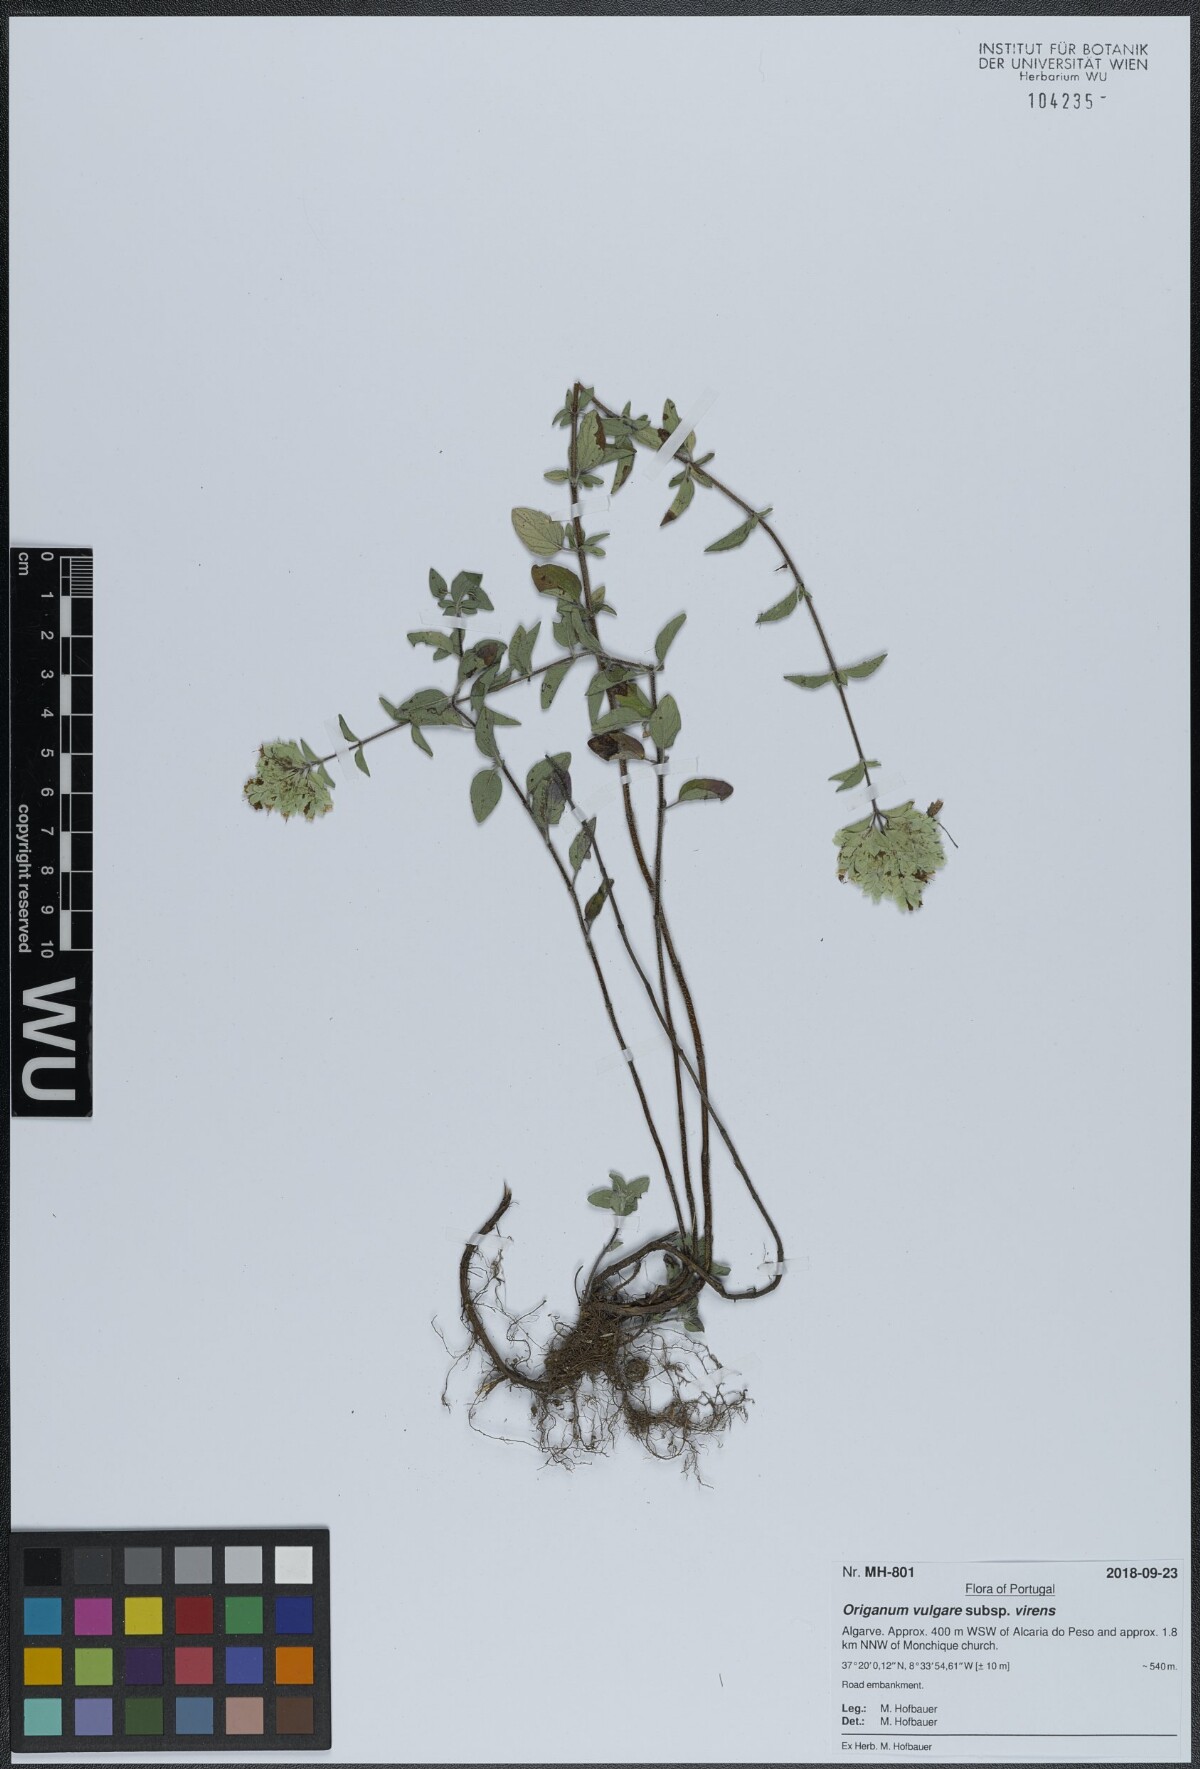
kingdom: Plantae
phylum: Tracheophyta
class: Magnoliopsida
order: Lamiales
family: Lamiaceae
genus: Origanum
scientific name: Origanum vulgare
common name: Wild marjoram
